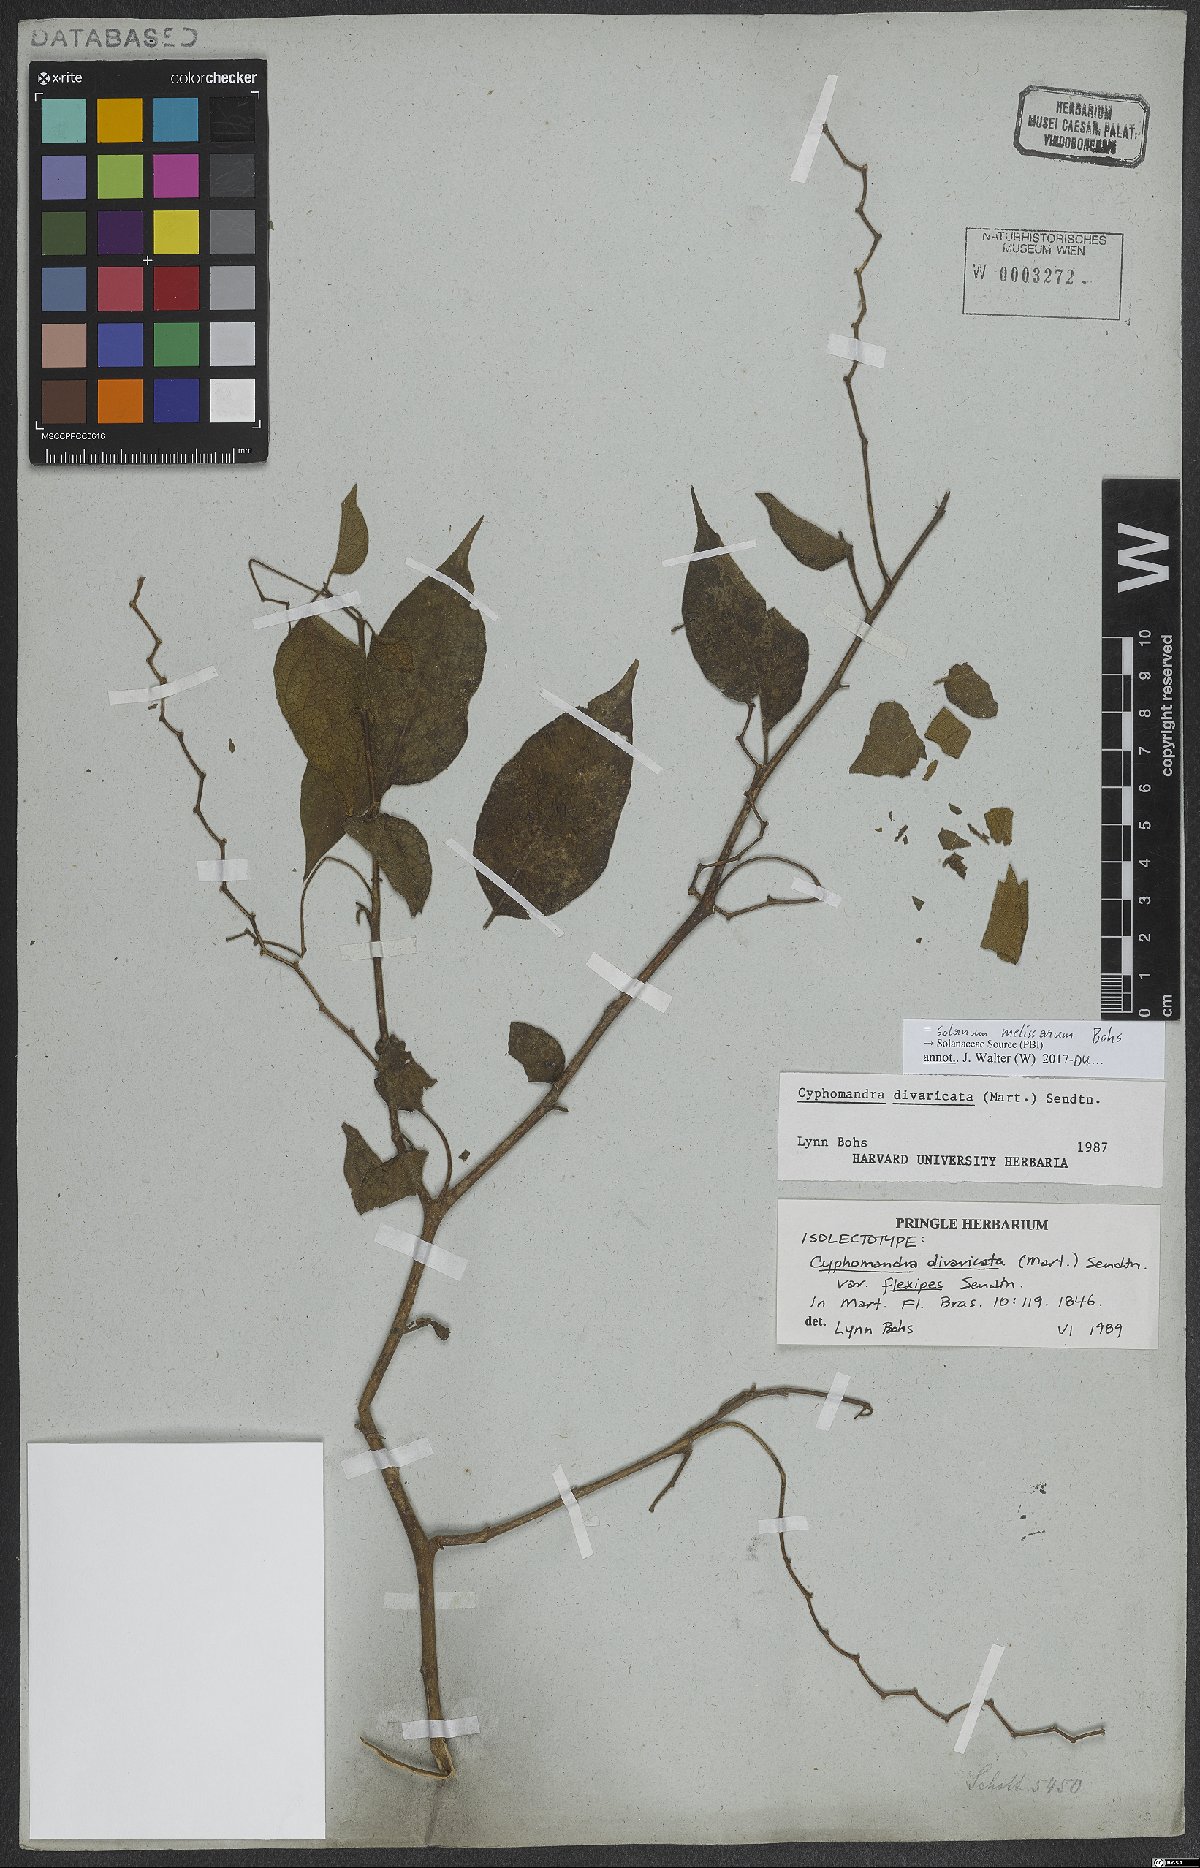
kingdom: Plantae
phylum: Tracheophyta
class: Magnoliopsida
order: Solanales
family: Solanaceae
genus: Solanum
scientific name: Solanum melissarum
